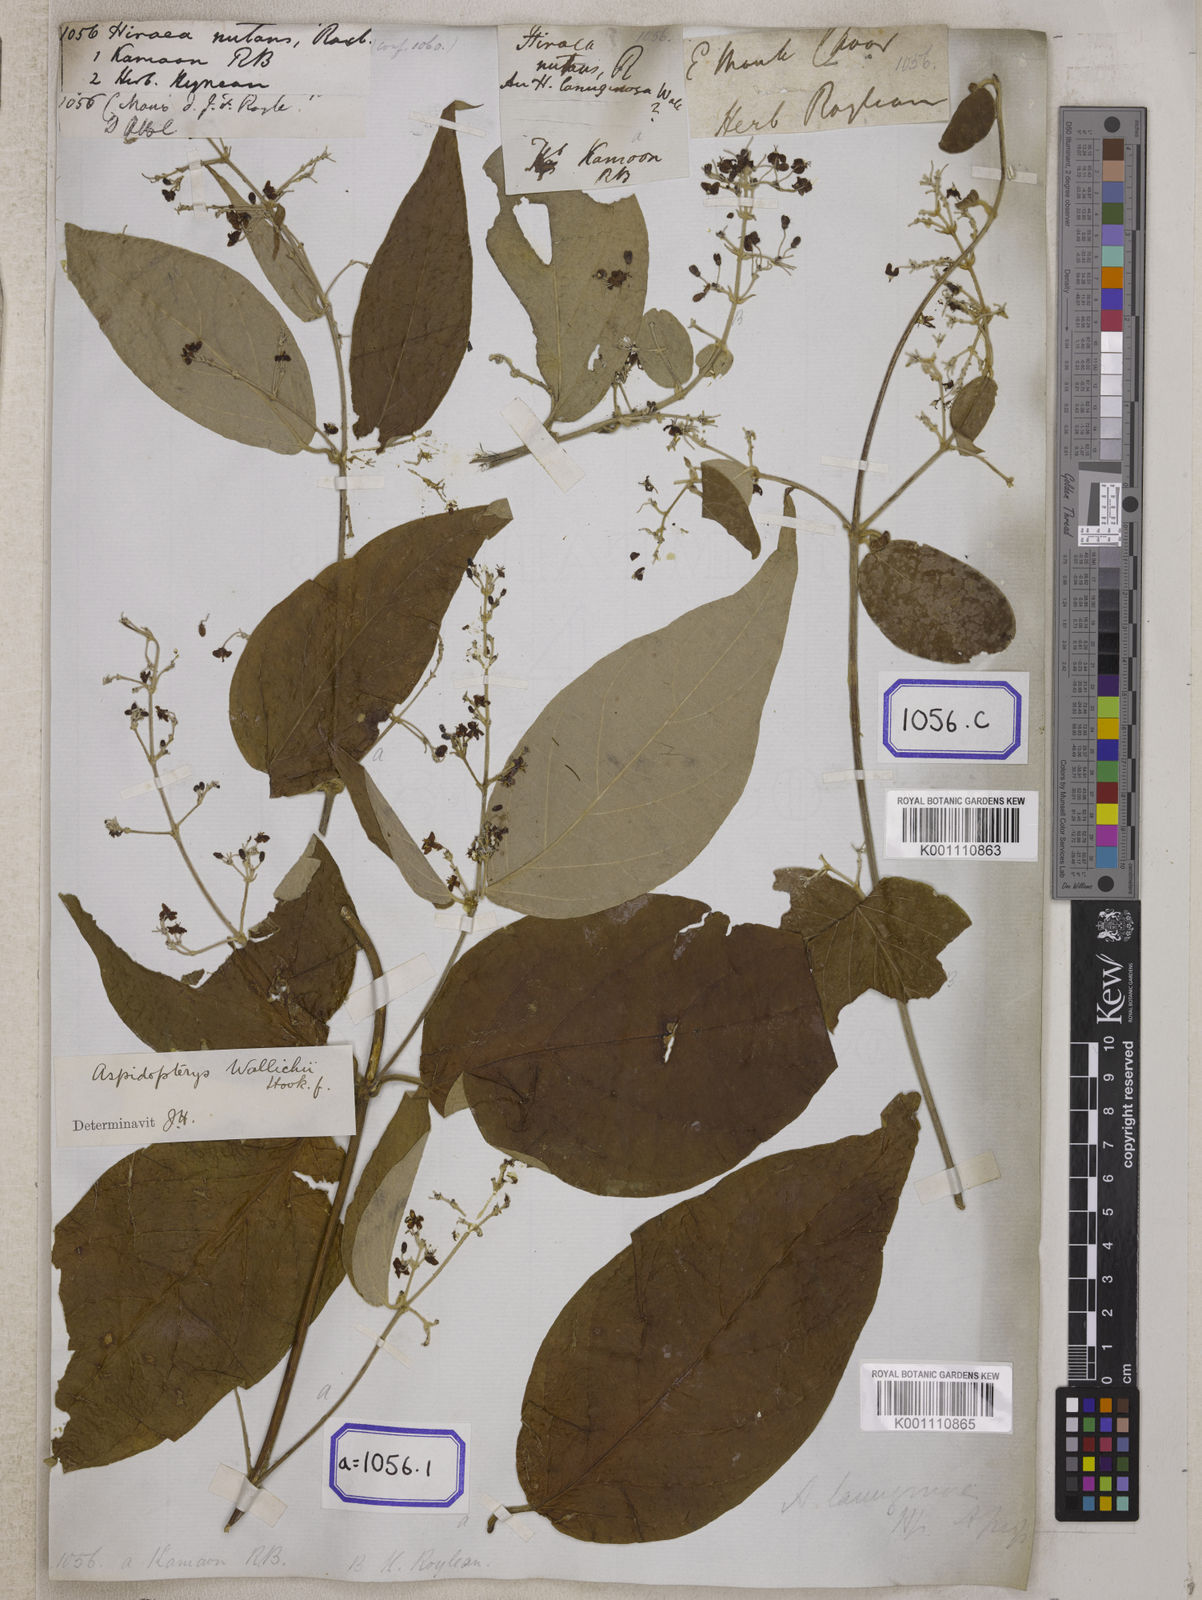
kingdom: Plantae
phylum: Tracheophyta
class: Magnoliopsida
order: Malpighiales
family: Malpighiaceae
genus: Hiraea
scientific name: Hiraea
